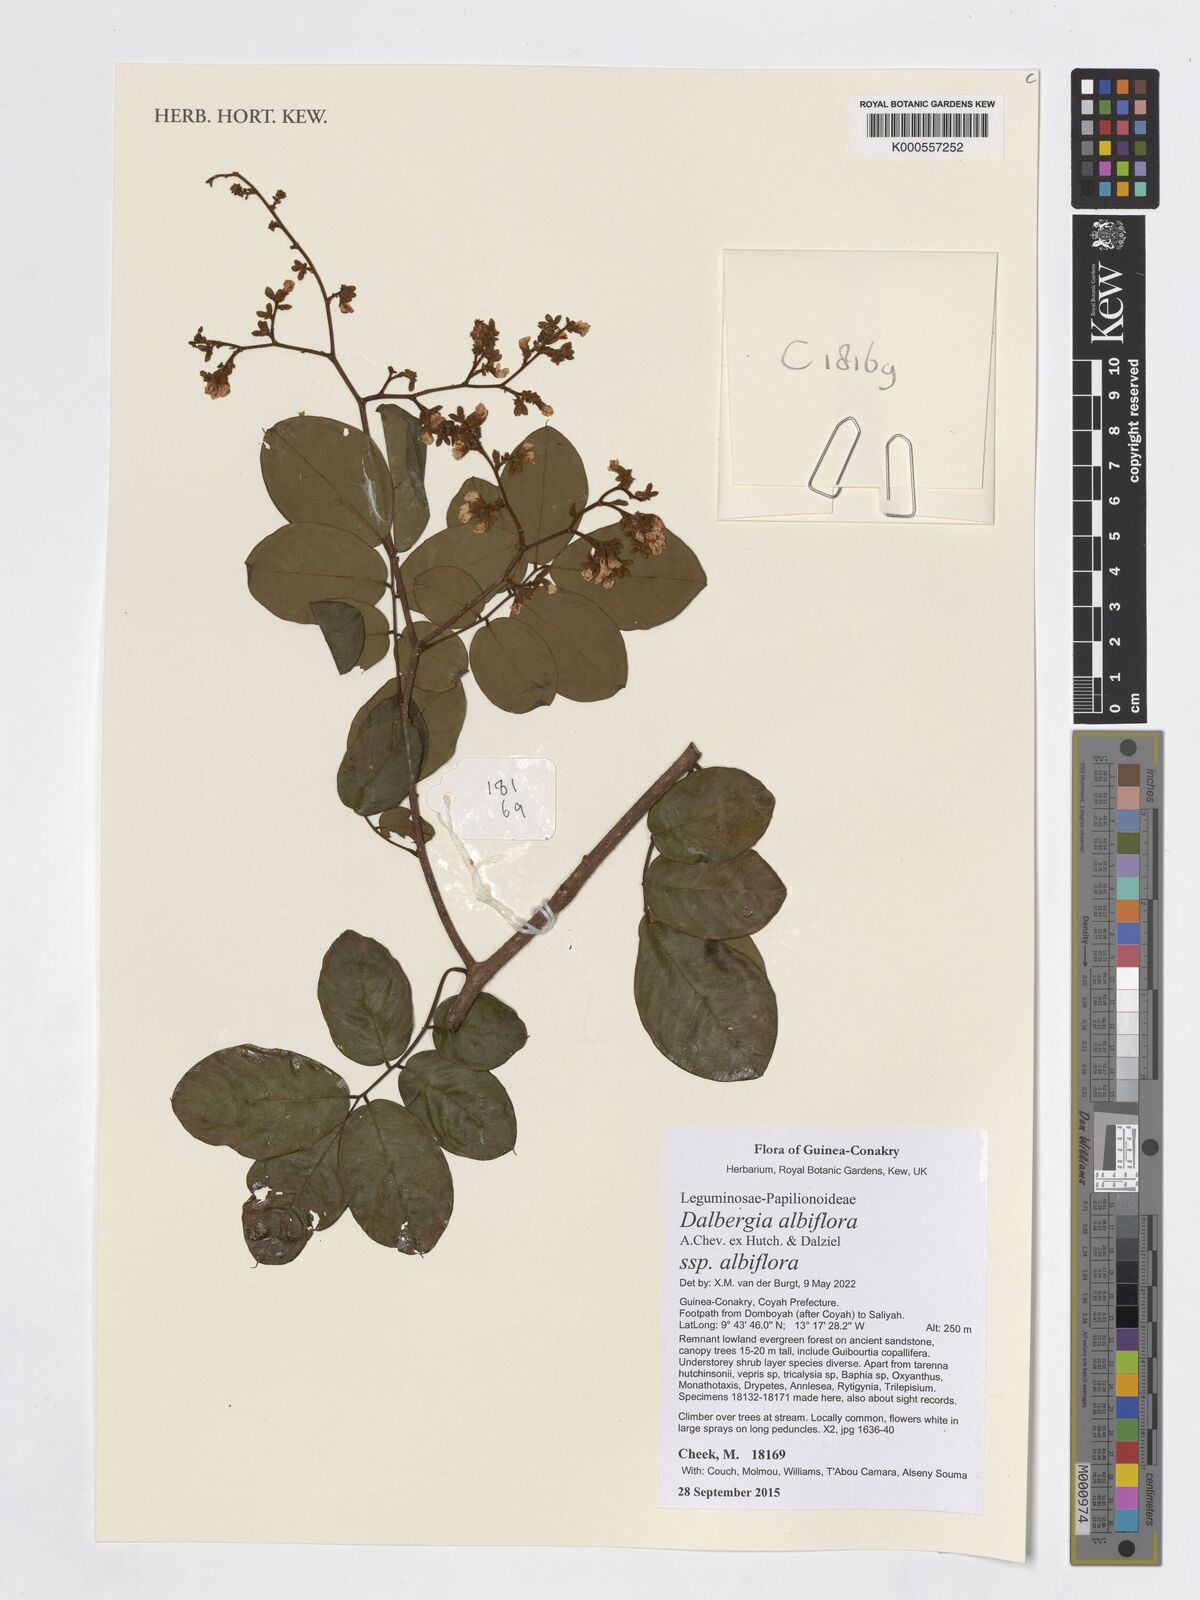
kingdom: Plantae
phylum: Tracheophyta
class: Magnoliopsida
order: Fabales
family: Fabaceae
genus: Dalbergia
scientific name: Dalbergia albiflora
